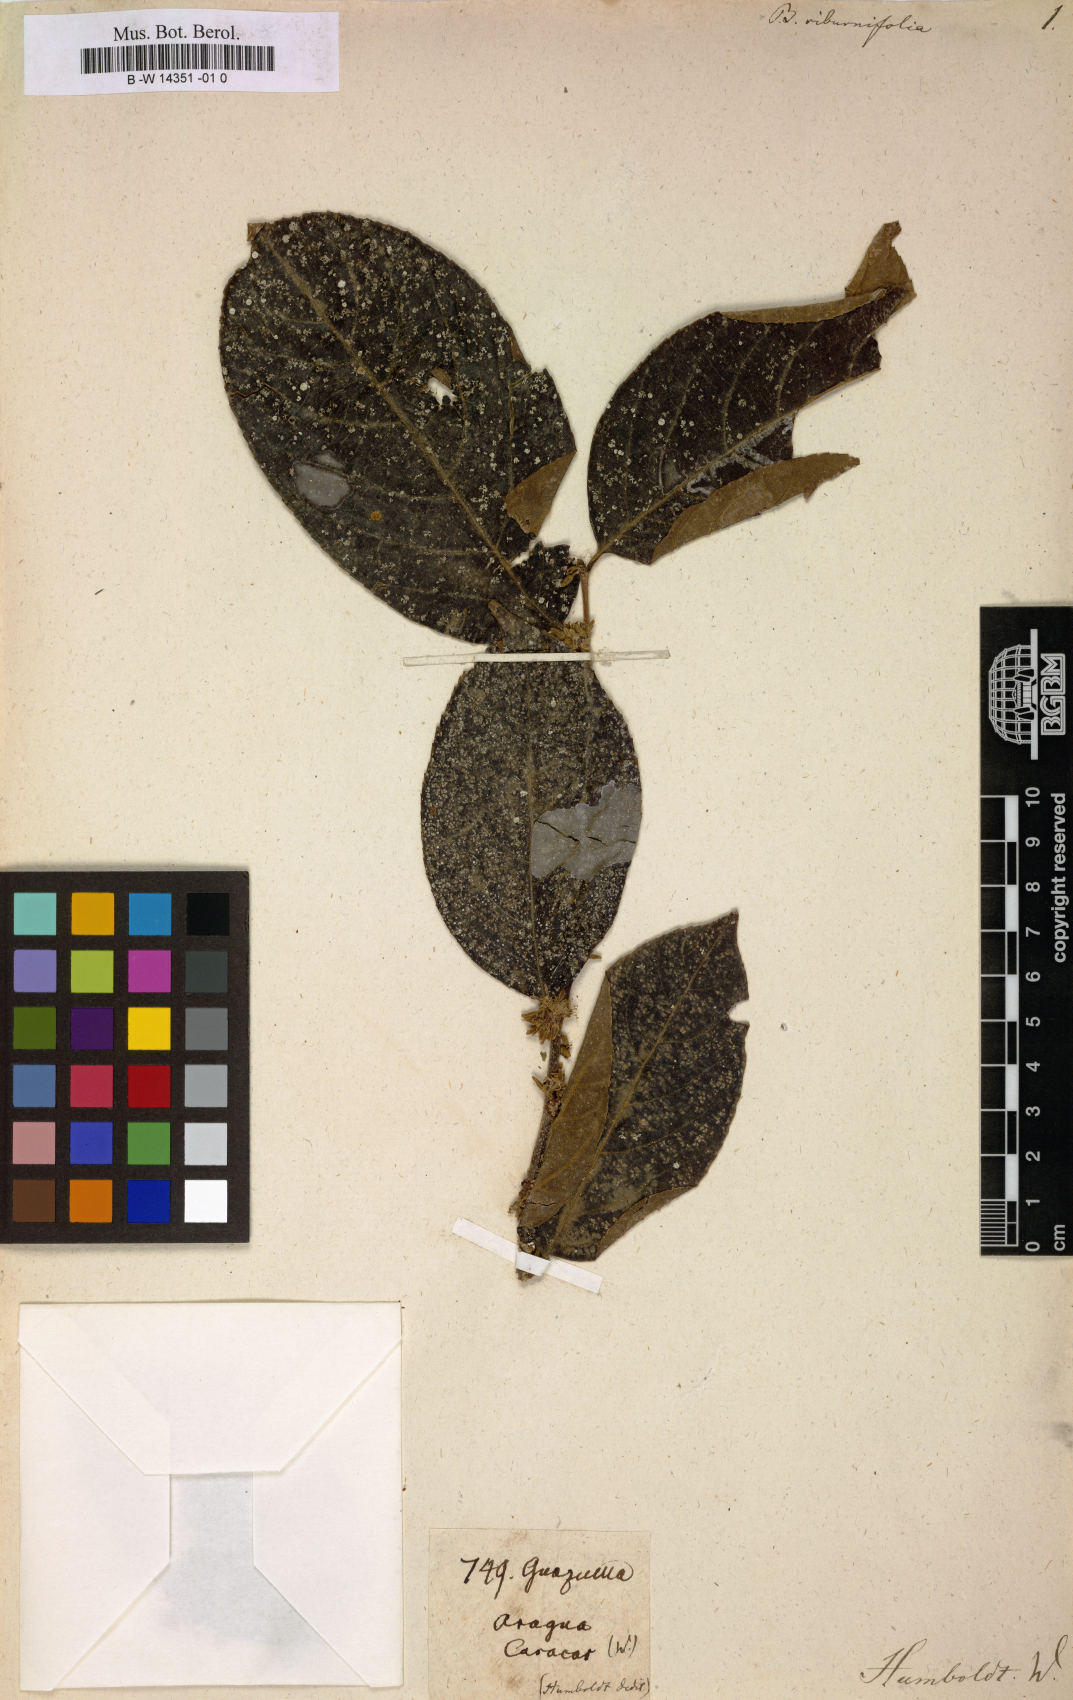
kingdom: Plantae
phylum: Tracheophyta
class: Magnoliopsida
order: Malvales
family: Malvaceae
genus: Guazuma
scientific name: Guazuma
